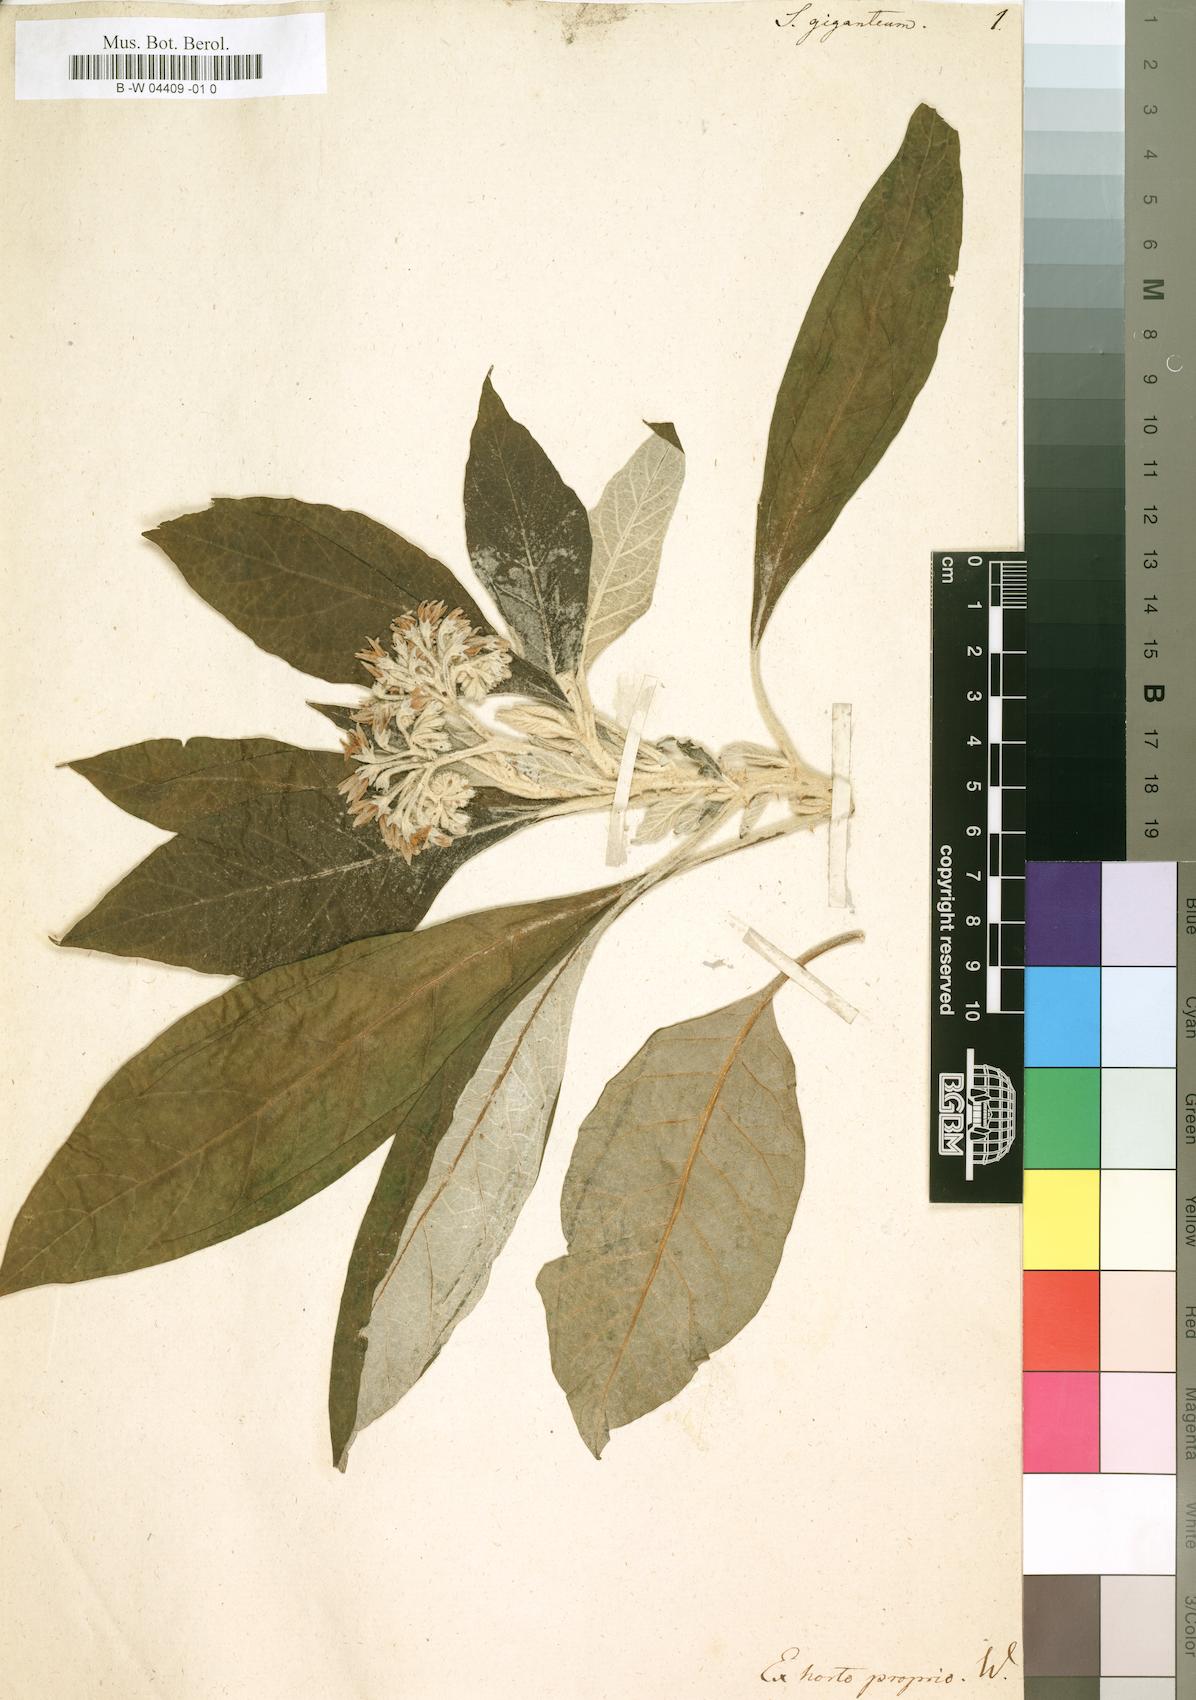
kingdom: Plantae
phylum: Tracheophyta
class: Magnoliopsida
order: Solanales
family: Solanaceae
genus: Solanum
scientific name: Solanum giganteum
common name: Healing-leaf-tree
